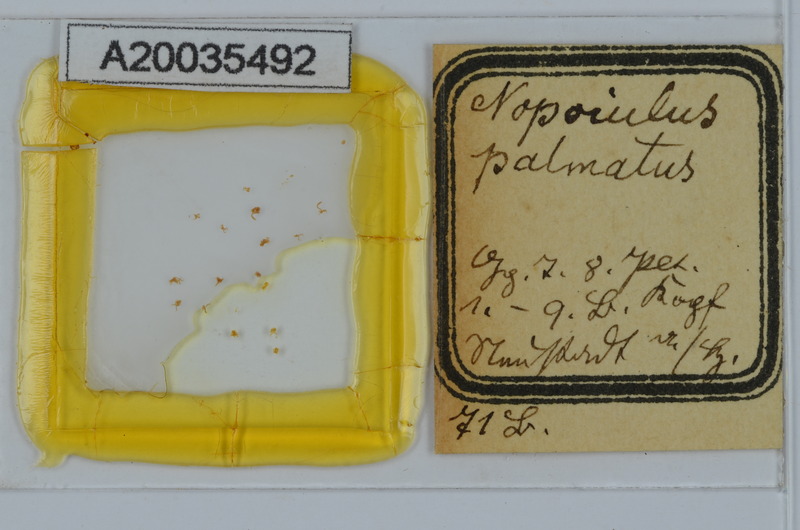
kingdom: Animalia
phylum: Arthropoda
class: Diplopoda
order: Julida
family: Blaniulidae
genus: Nopoiulus
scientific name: Nopoiulus palmatus
